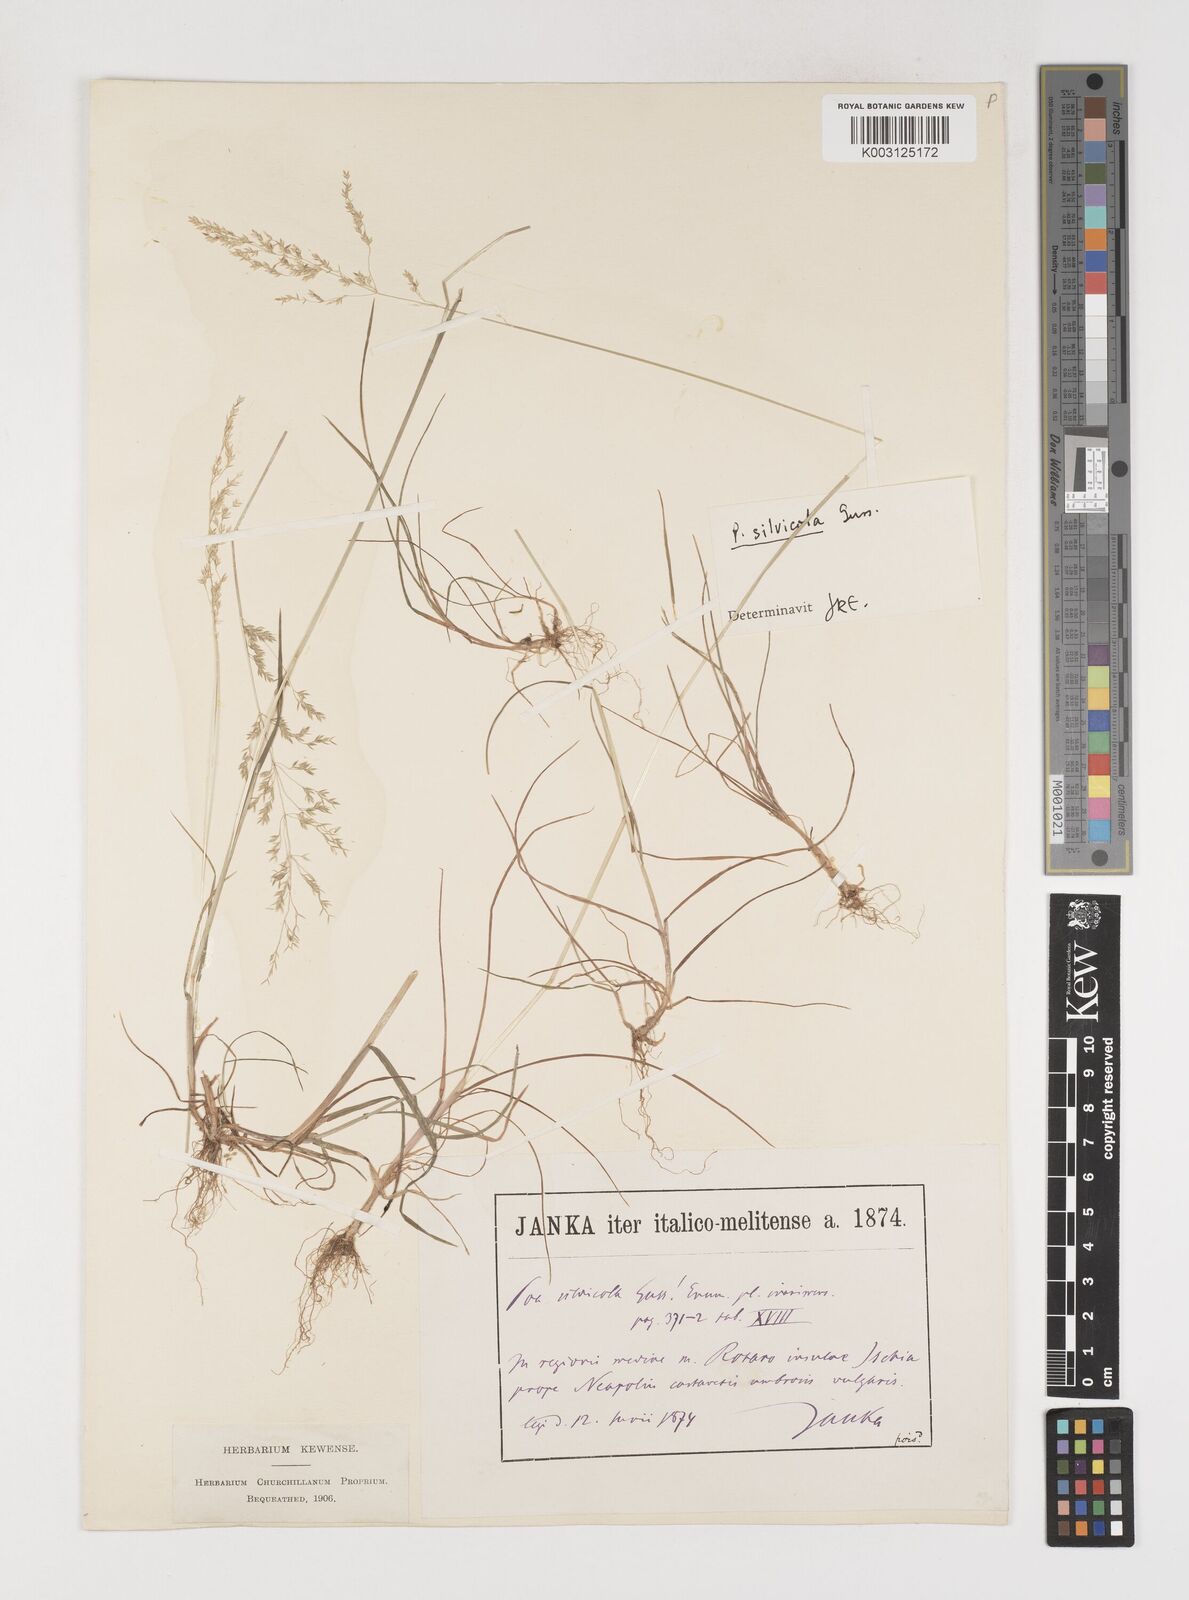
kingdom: Plantae
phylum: Tracheophyta
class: Liliopsida
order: Poales
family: Poaceae
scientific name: Poaceae
